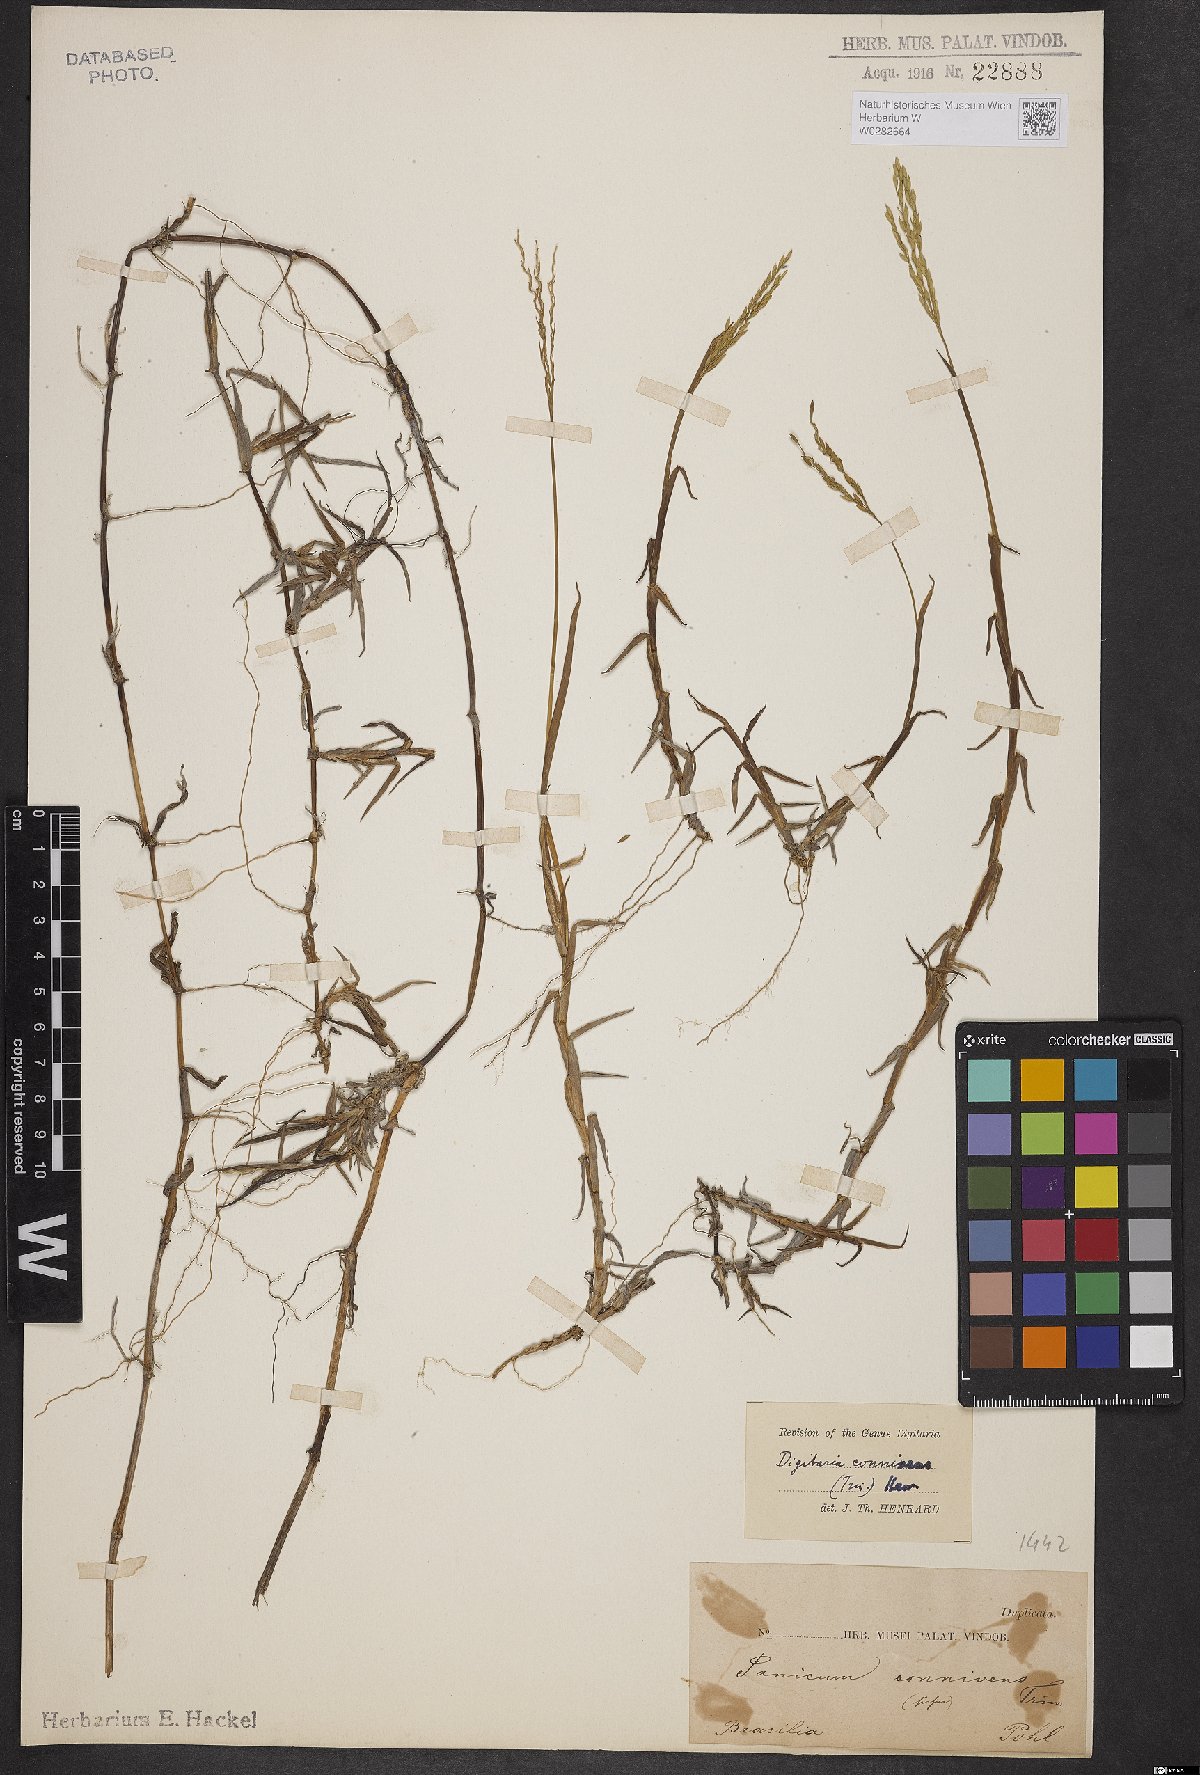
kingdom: Plantae
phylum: Tracheophyta
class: Liliopsida
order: Poales
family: Poaceae
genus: Digitaria
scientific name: Digitaria connivens
